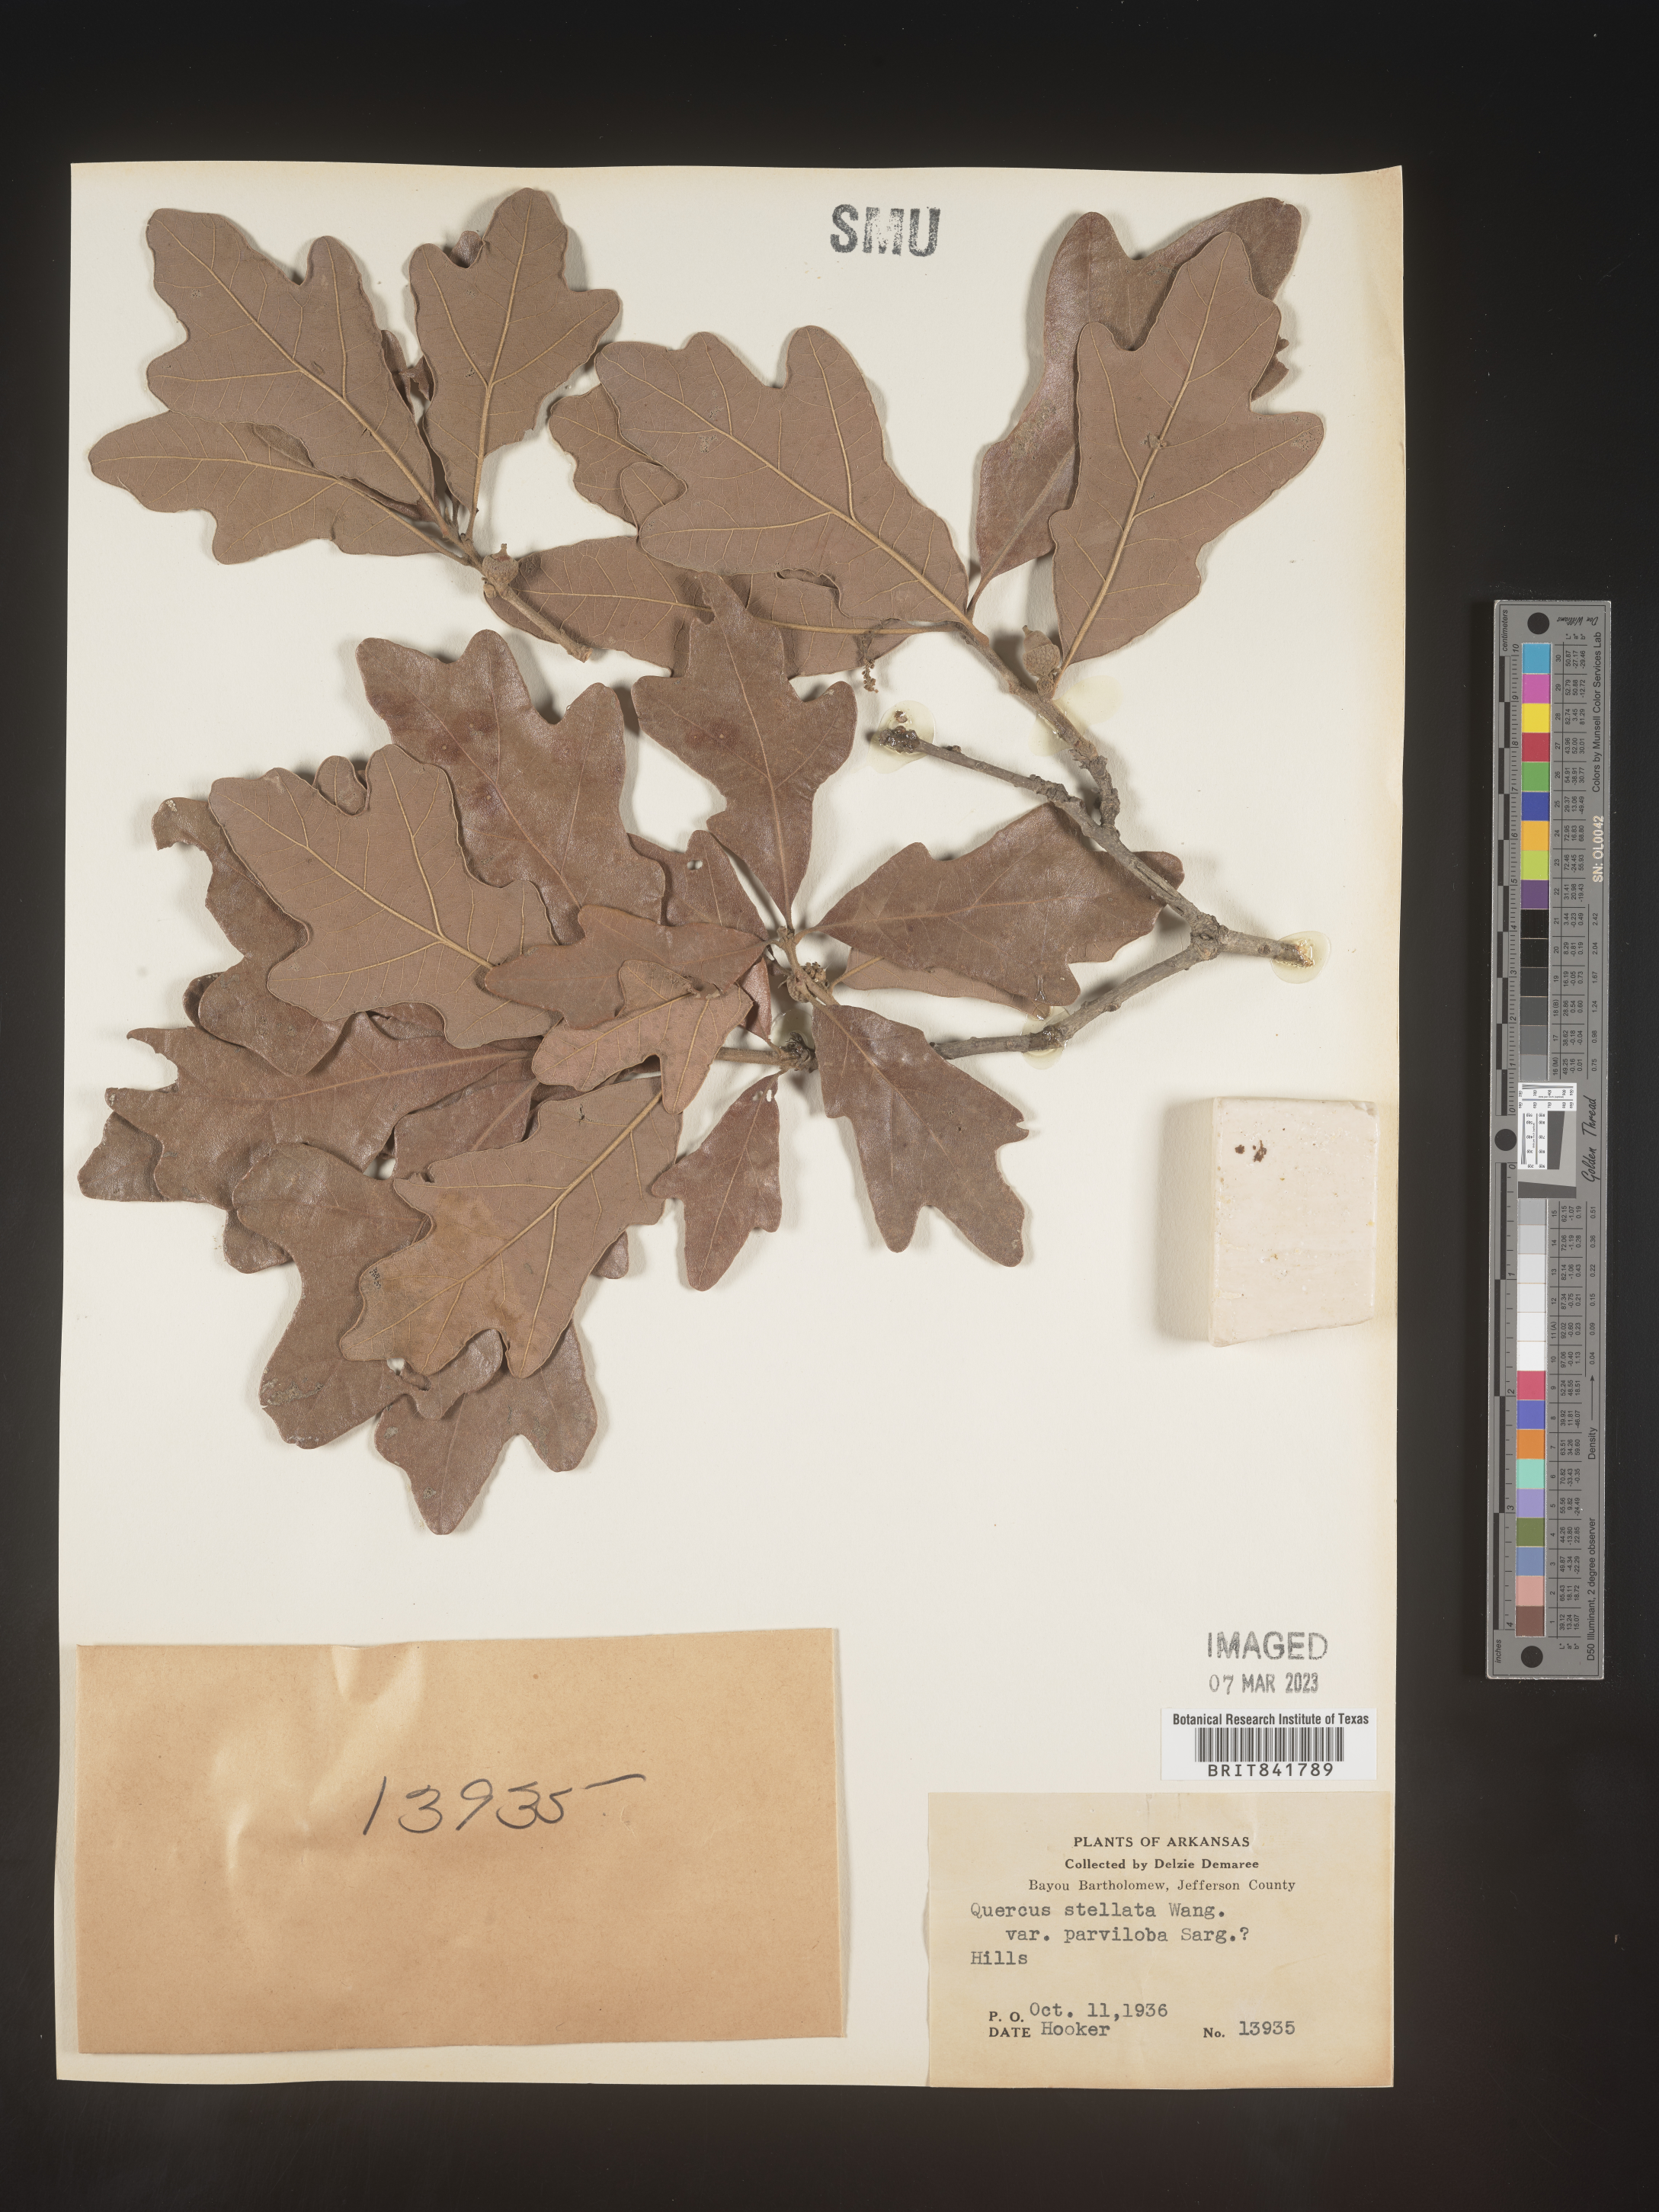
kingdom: Plantae
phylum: Tracheophyta
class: Magnoliopsida
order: Fagales
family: Fagaceae
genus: Quercus
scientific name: Quercus stellata
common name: Post oak
